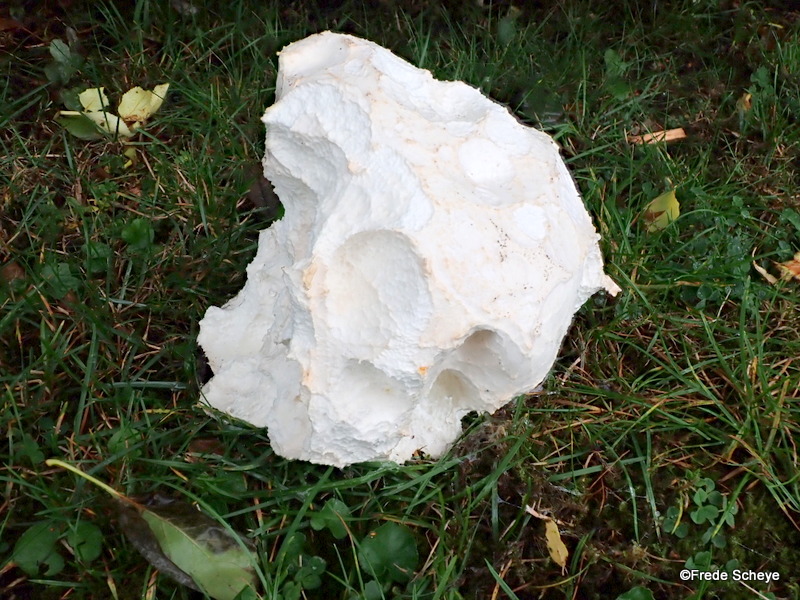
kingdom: Fungi
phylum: Basidiomycota
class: Agaricomycetes
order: Agaricales
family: Lycoperdaceae
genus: Calvatia
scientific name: Calvatia gigantea
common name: kæmpestøvbold
